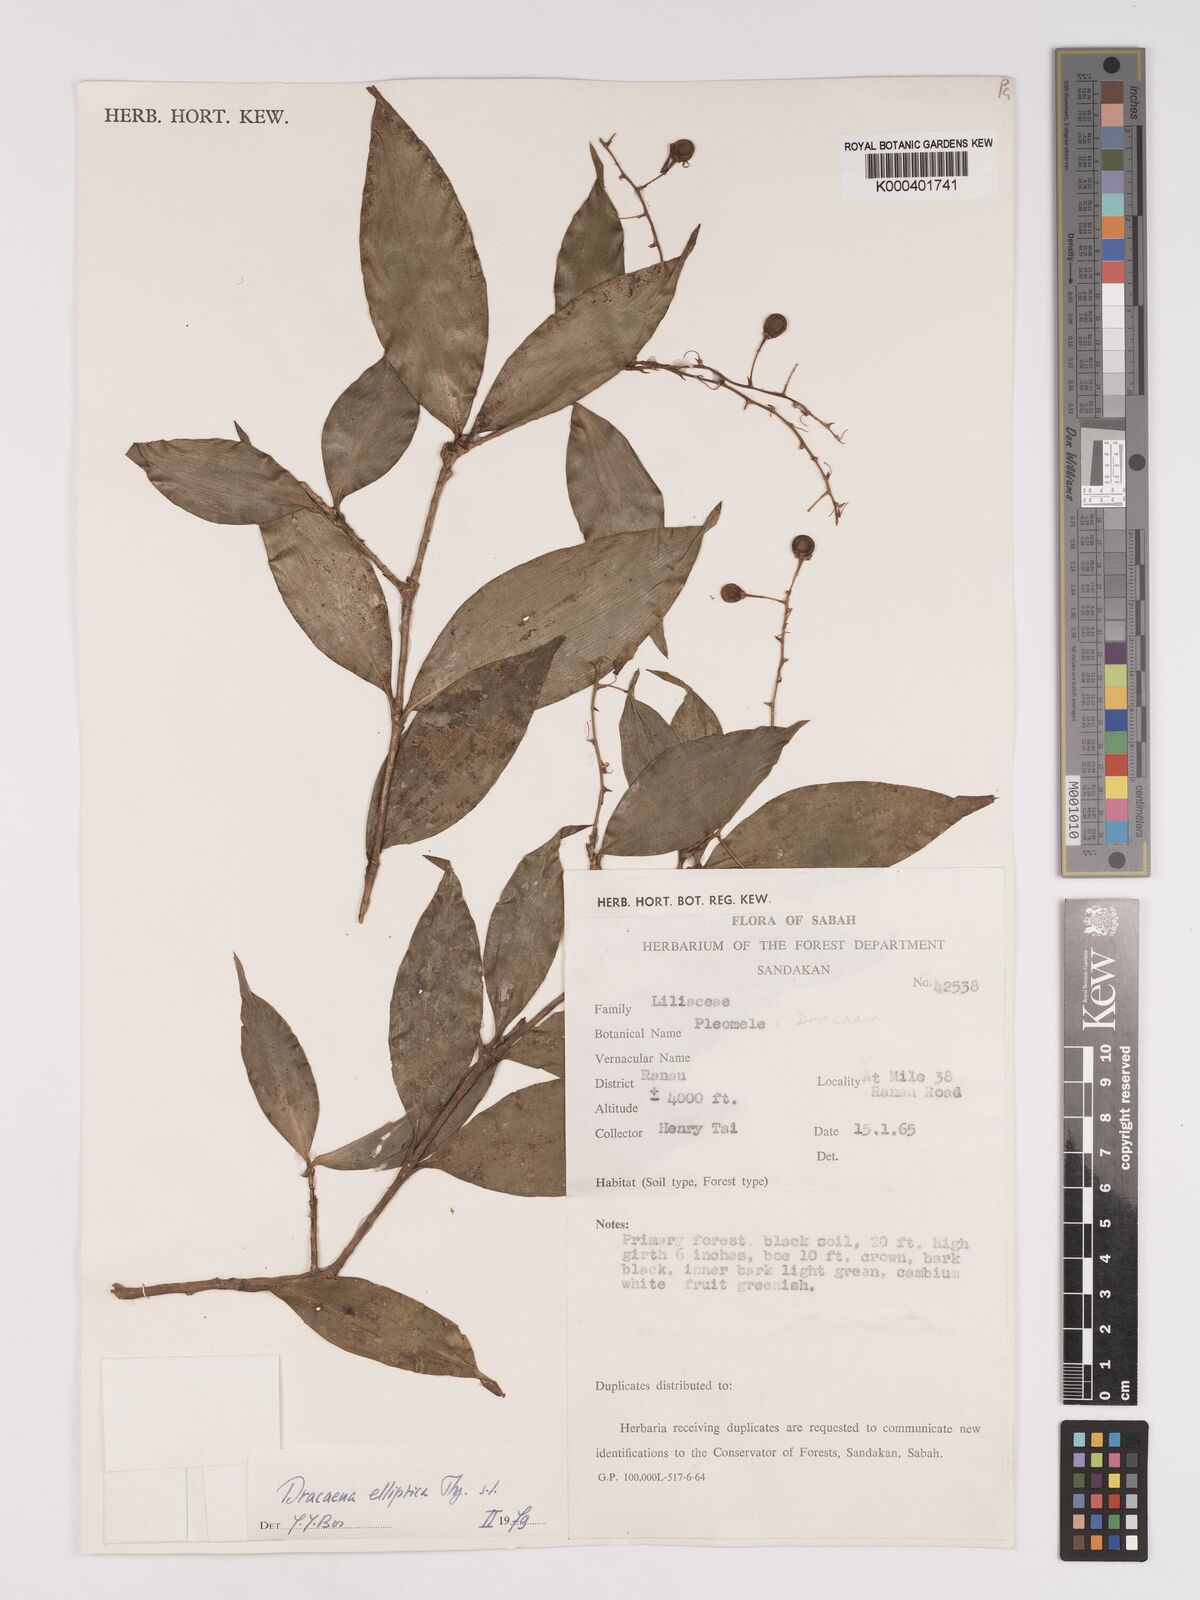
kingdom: Plantae
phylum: Tracheophyta
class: Liliopsida
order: Asparagales
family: Asparagaceae
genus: Dracaena
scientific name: Dracaena elliptica
